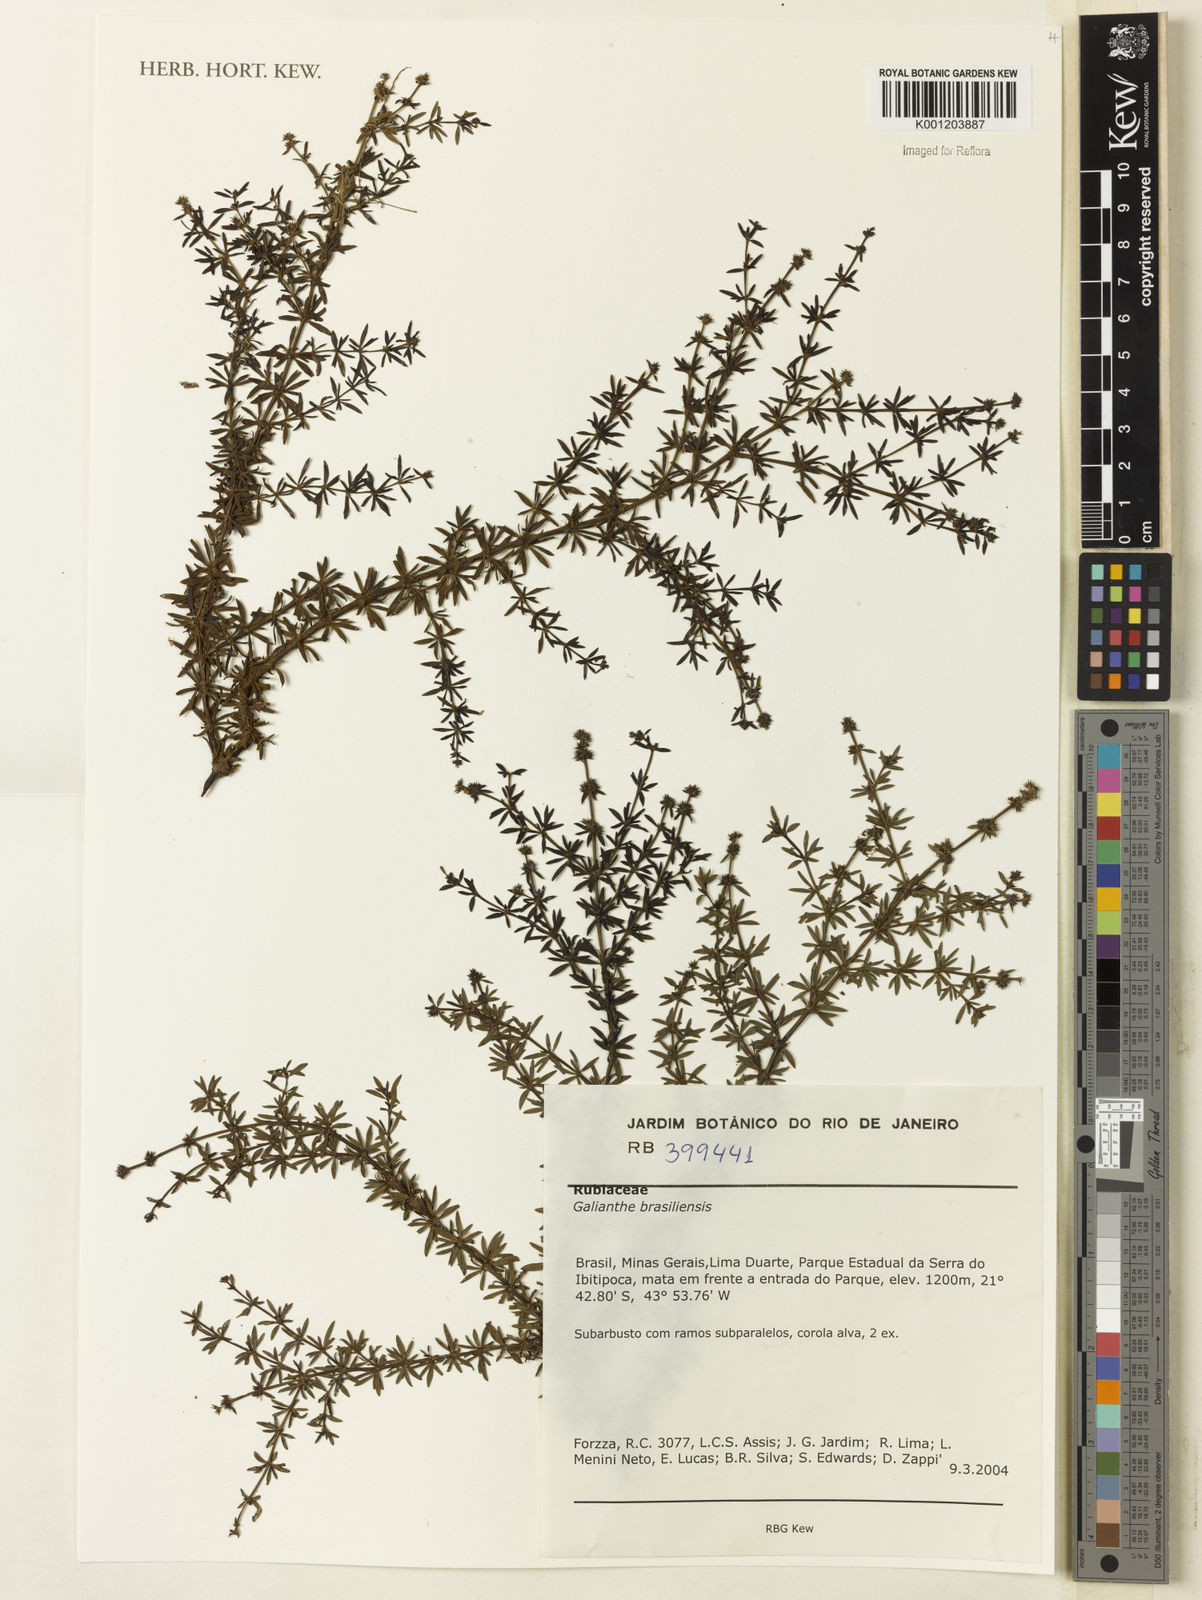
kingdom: Plantae
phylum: Tracheophyta
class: Magnoliopsida
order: Gentianales
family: Rubiaceae
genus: Galianthe
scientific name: Galianthe brasiliensis
